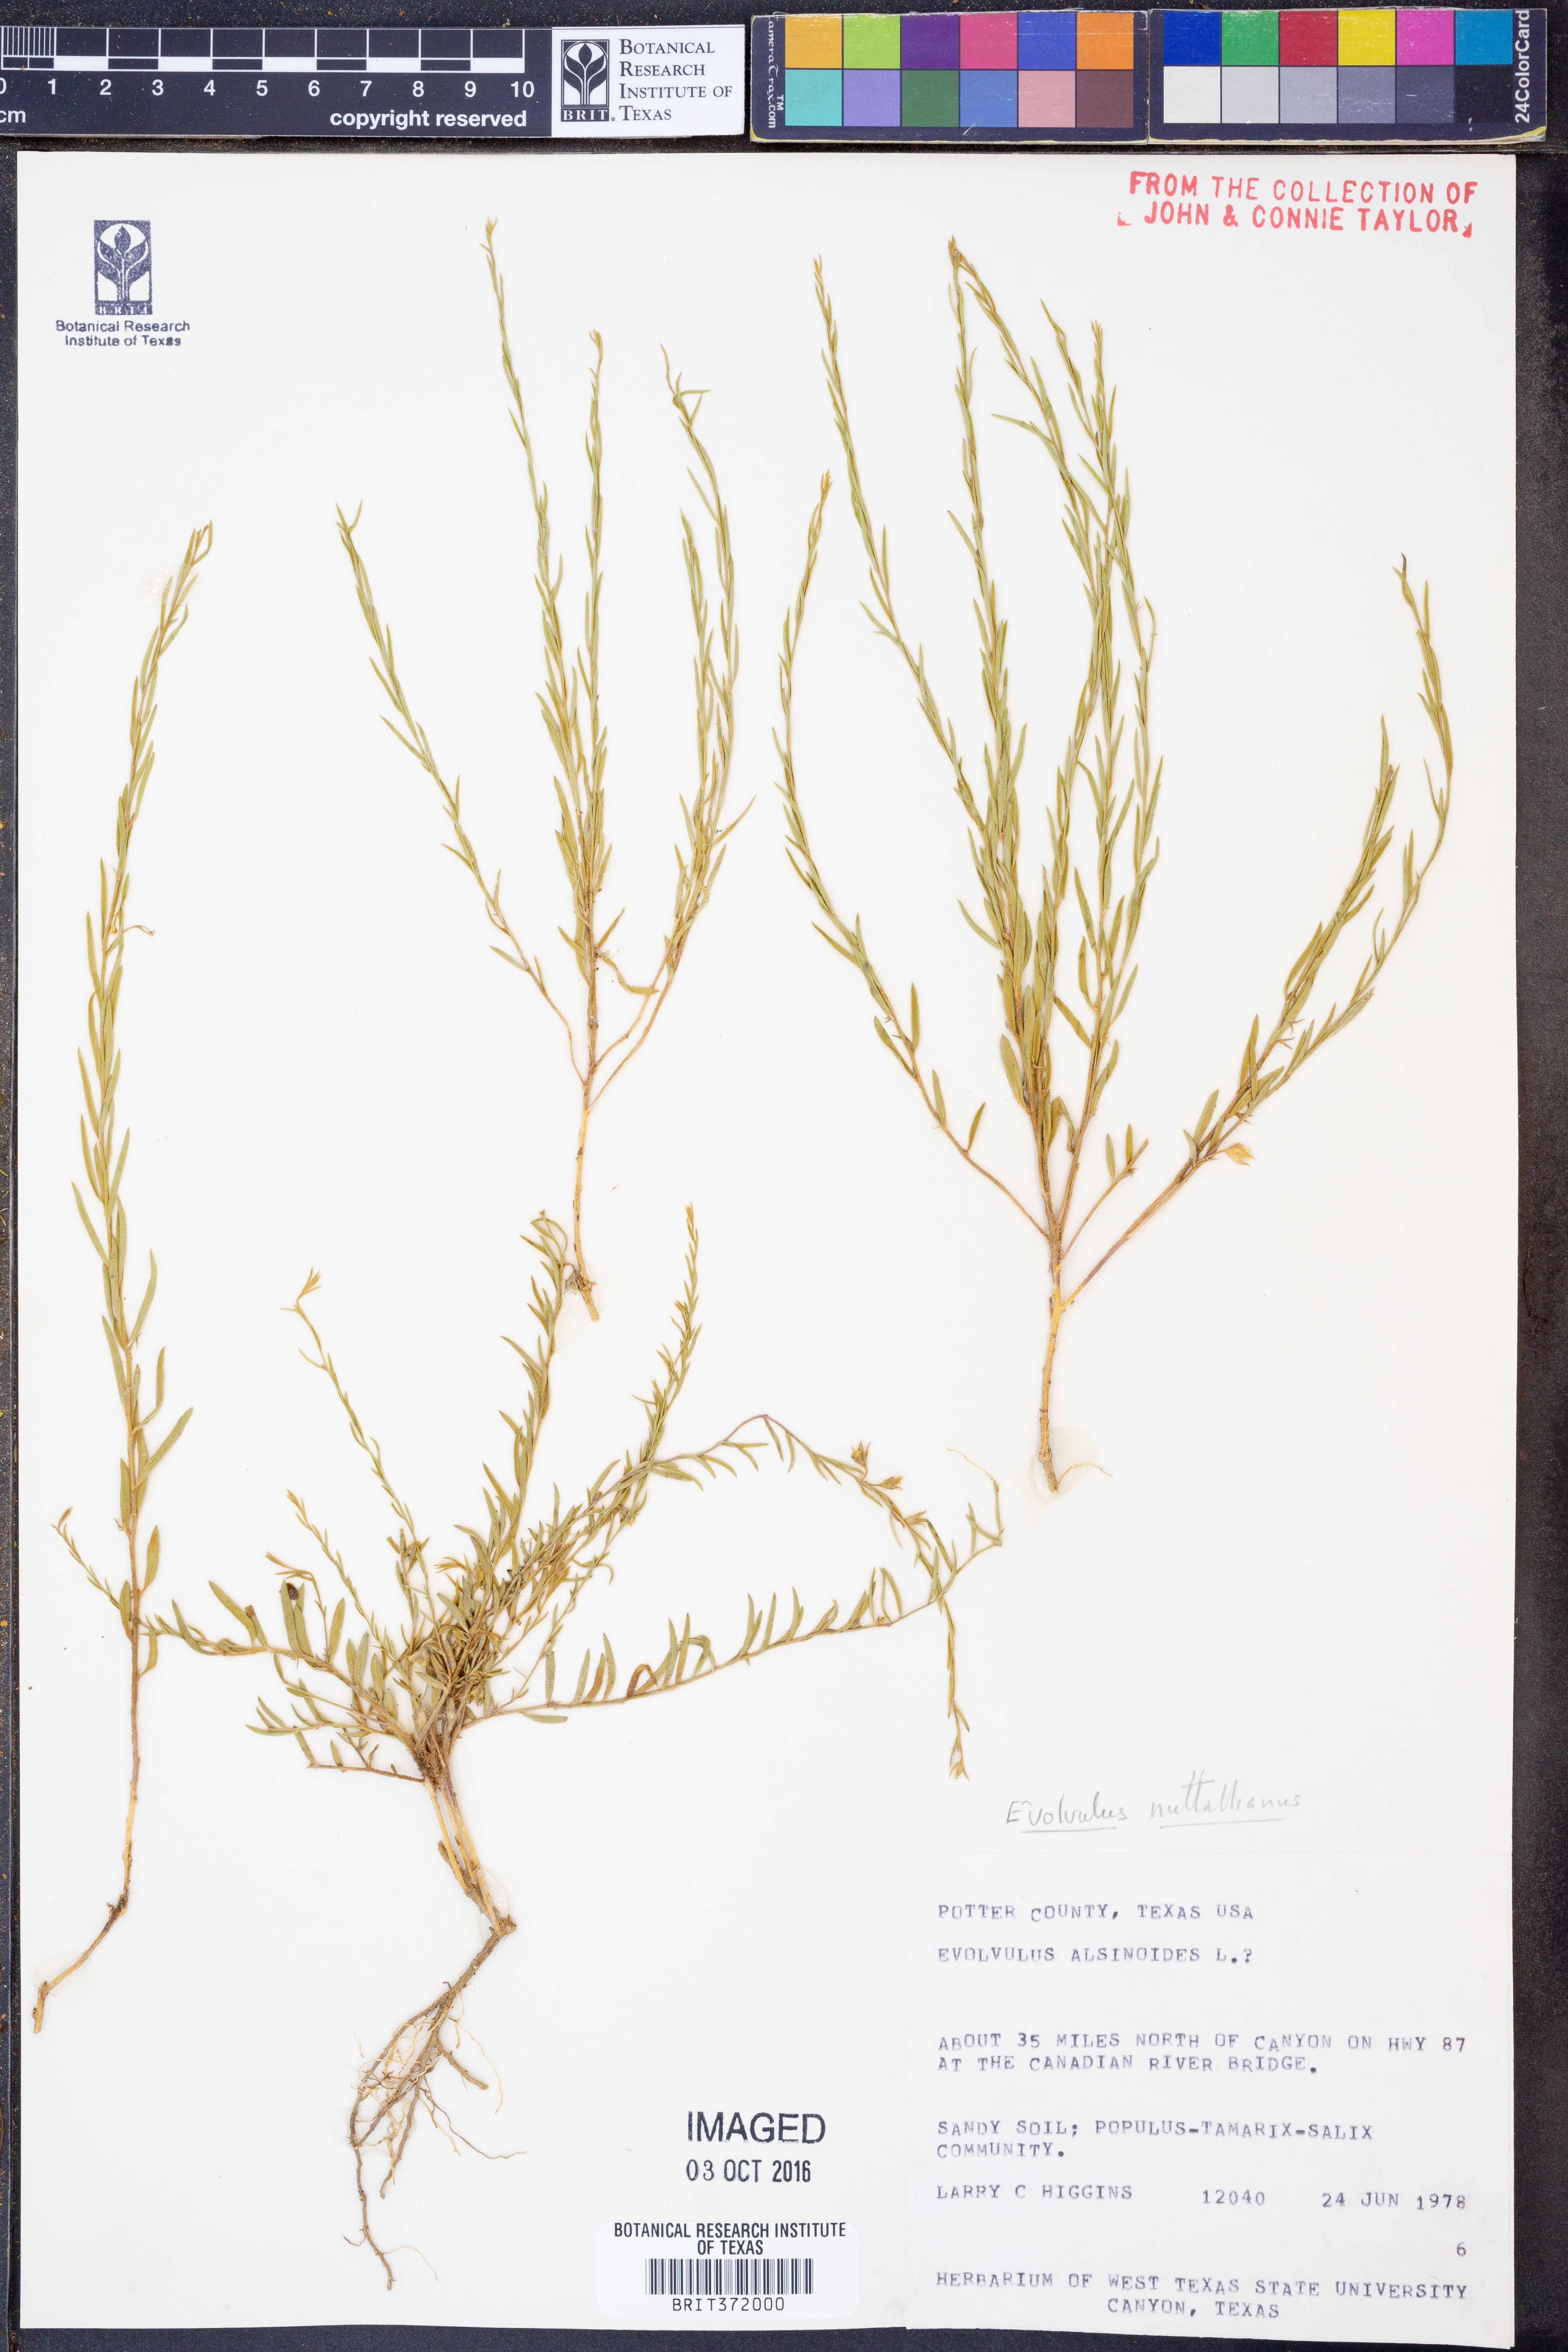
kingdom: Plantae
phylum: Tracheophyta
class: Magnoliopsida
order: Solanales
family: Convolvulaceae
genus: Evolvulus
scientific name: Evolvulus nuttallianus
